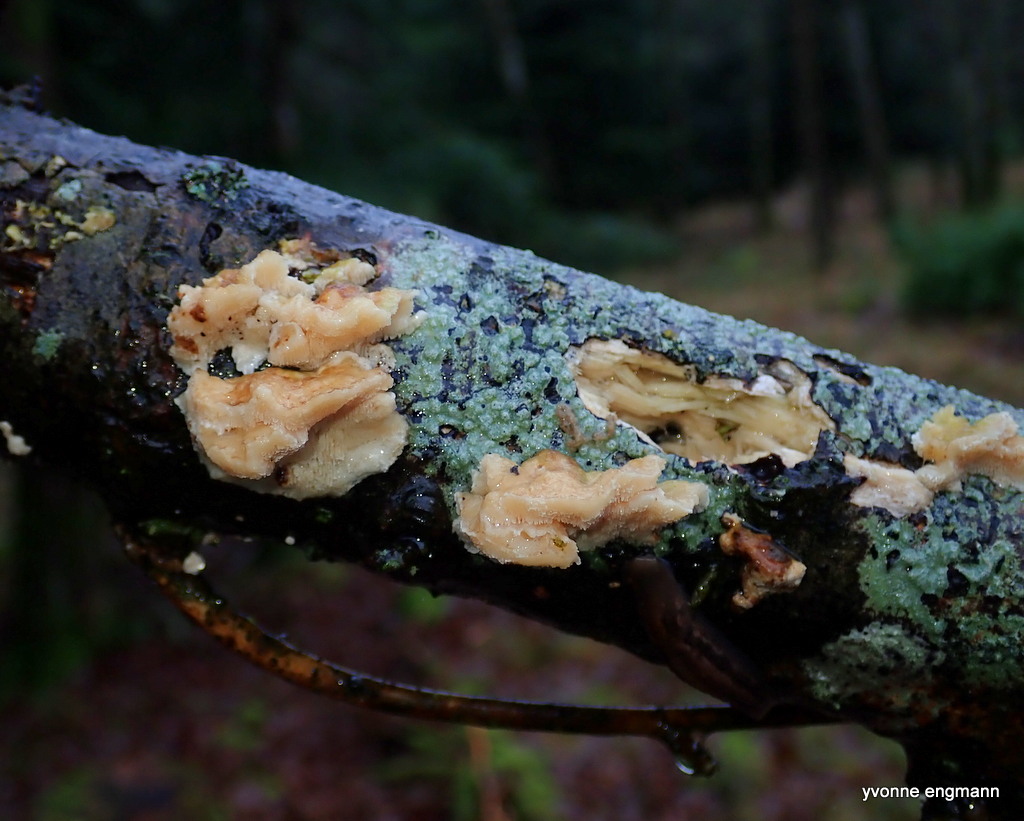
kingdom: Fungi
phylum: Basidiomycota
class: Agaricomycetes
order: Polyporales
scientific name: Polyporales
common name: poresvampordenen
